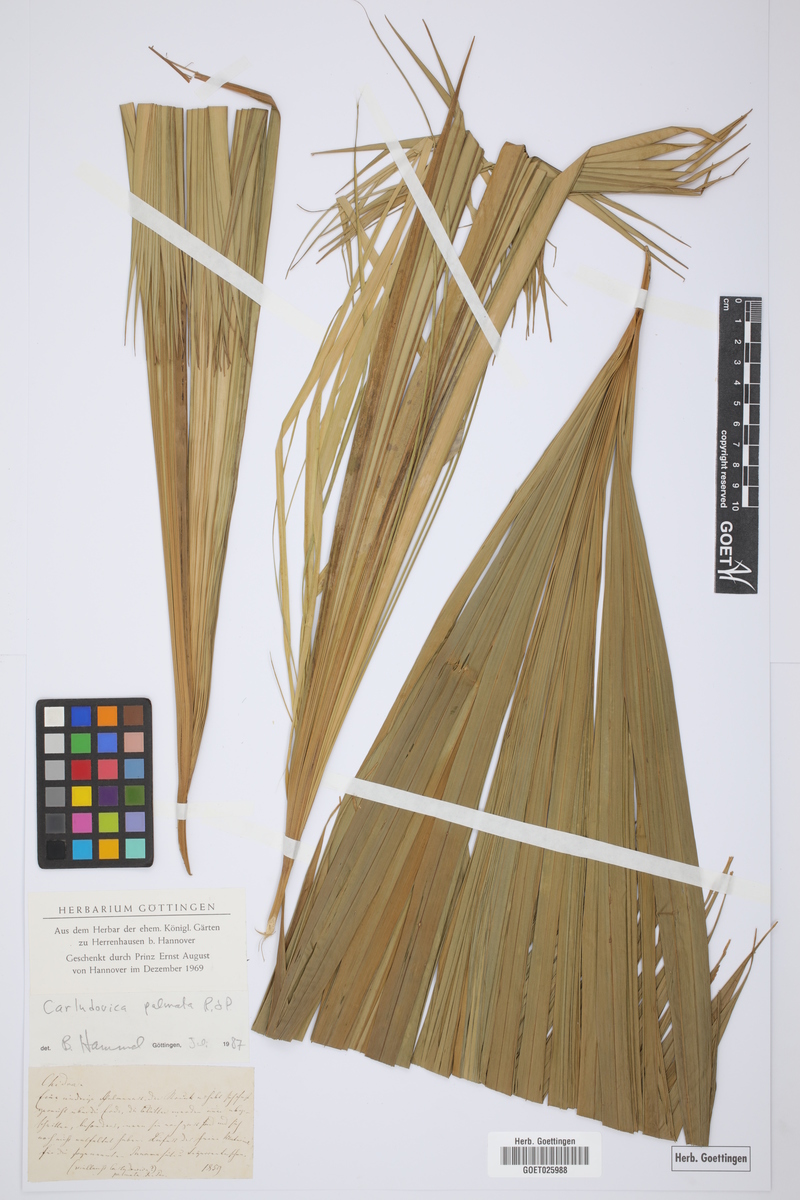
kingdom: Plantae
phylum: Tracheophyta
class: Liliopsida
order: Pandanales
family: Cyclanthaceae
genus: Carludovica
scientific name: Carludovica palmata
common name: Panama hat plant
